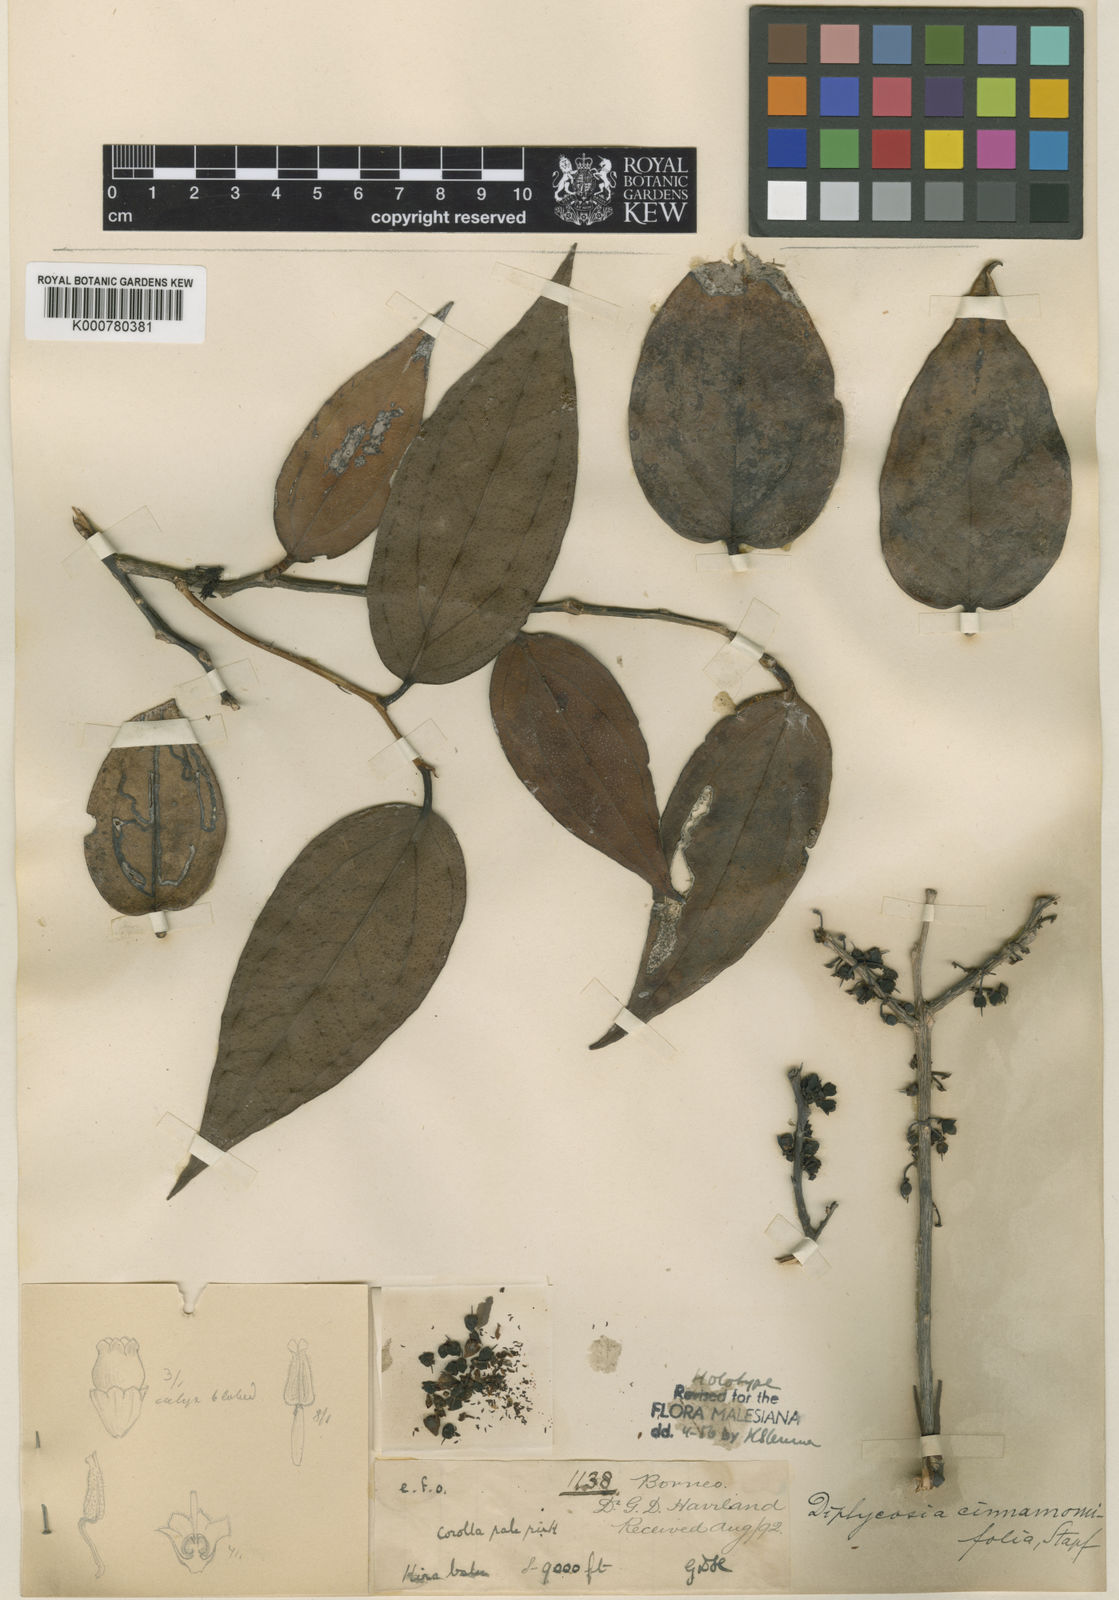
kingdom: Plantae
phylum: Tracheophyta
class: Magnoliopsida
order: Ericales
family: Ericaceae
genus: Gaultheria
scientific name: Gaultheria cinnamomifolia
